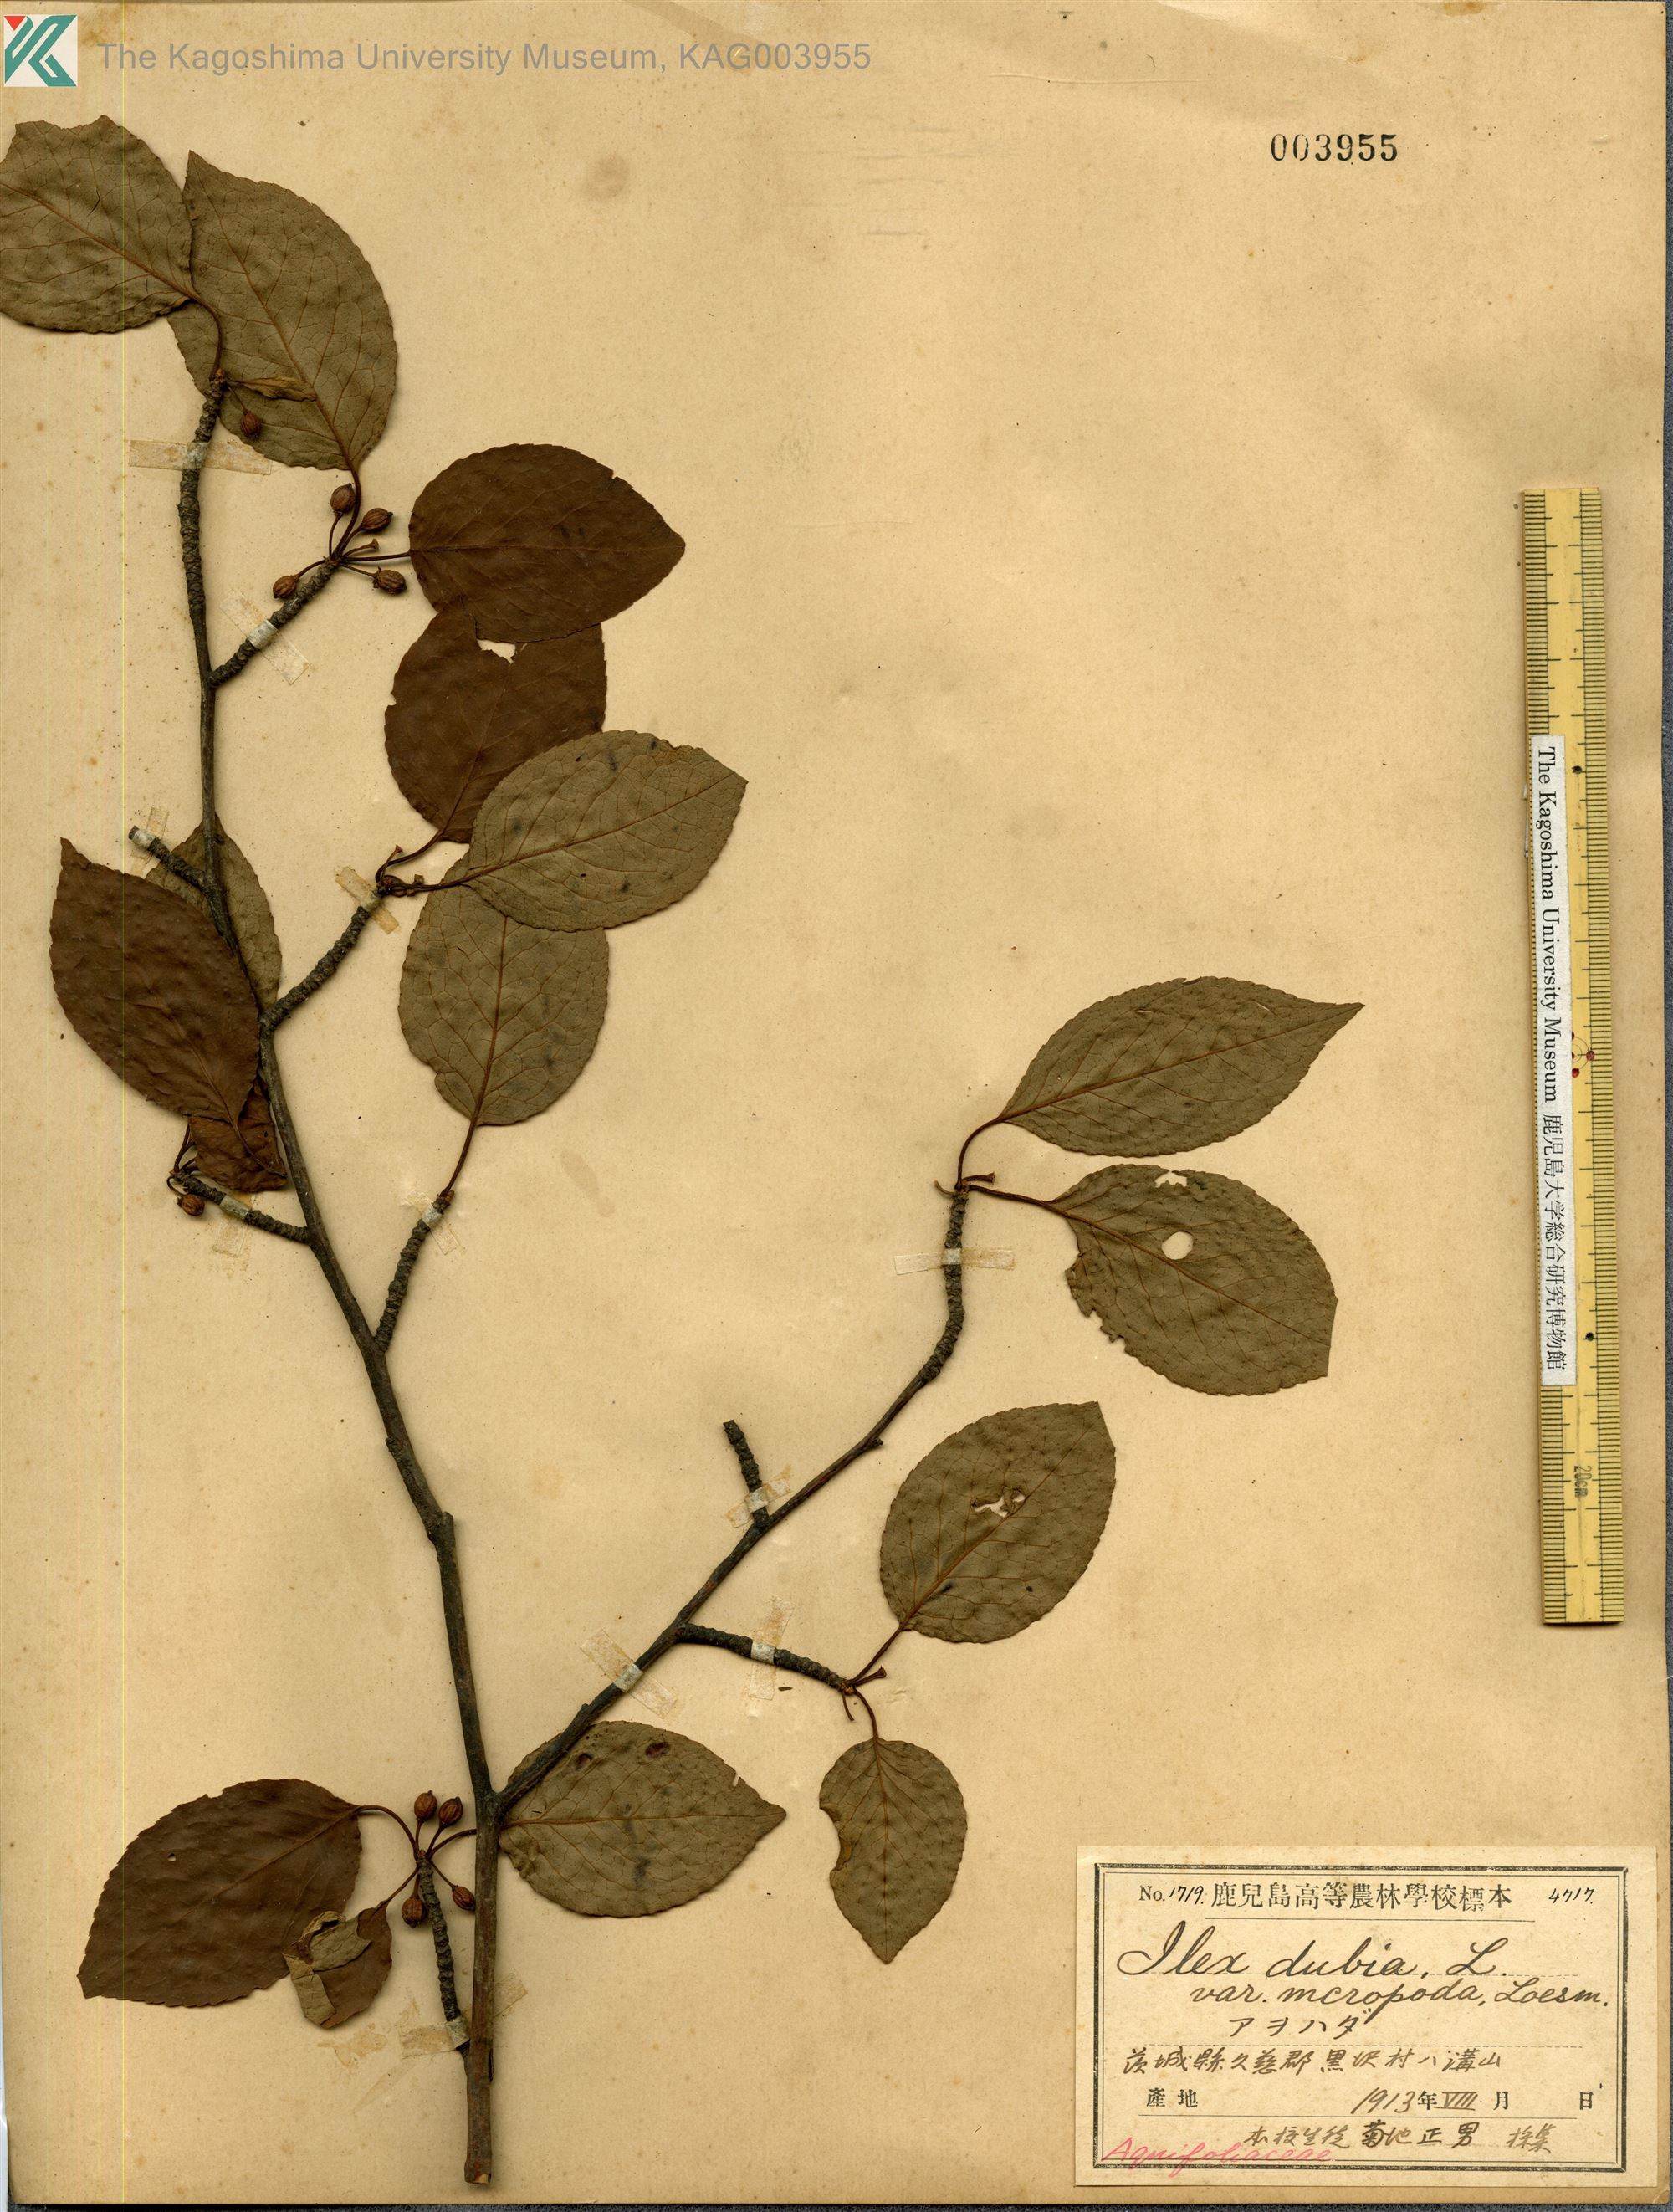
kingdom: Plantae
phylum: Tracheophyta
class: Magnoliopsida
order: Aquifoliales
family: Aquifoliaceae
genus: Ilex
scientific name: Ilex macropoda
